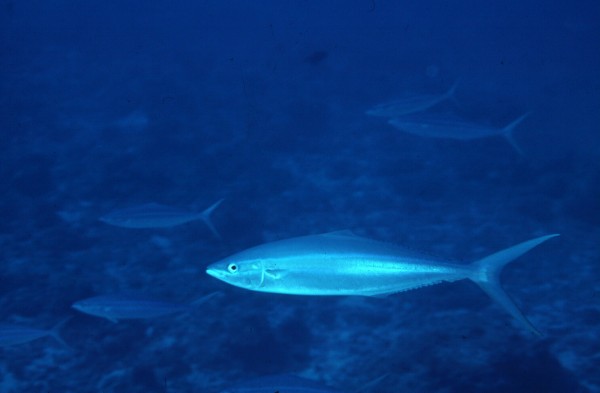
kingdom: Animalia
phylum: Chordata
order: Perciformes
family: Carangidae
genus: Elagatis
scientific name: Elagatis bipinnulata
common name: Rainbow runner
